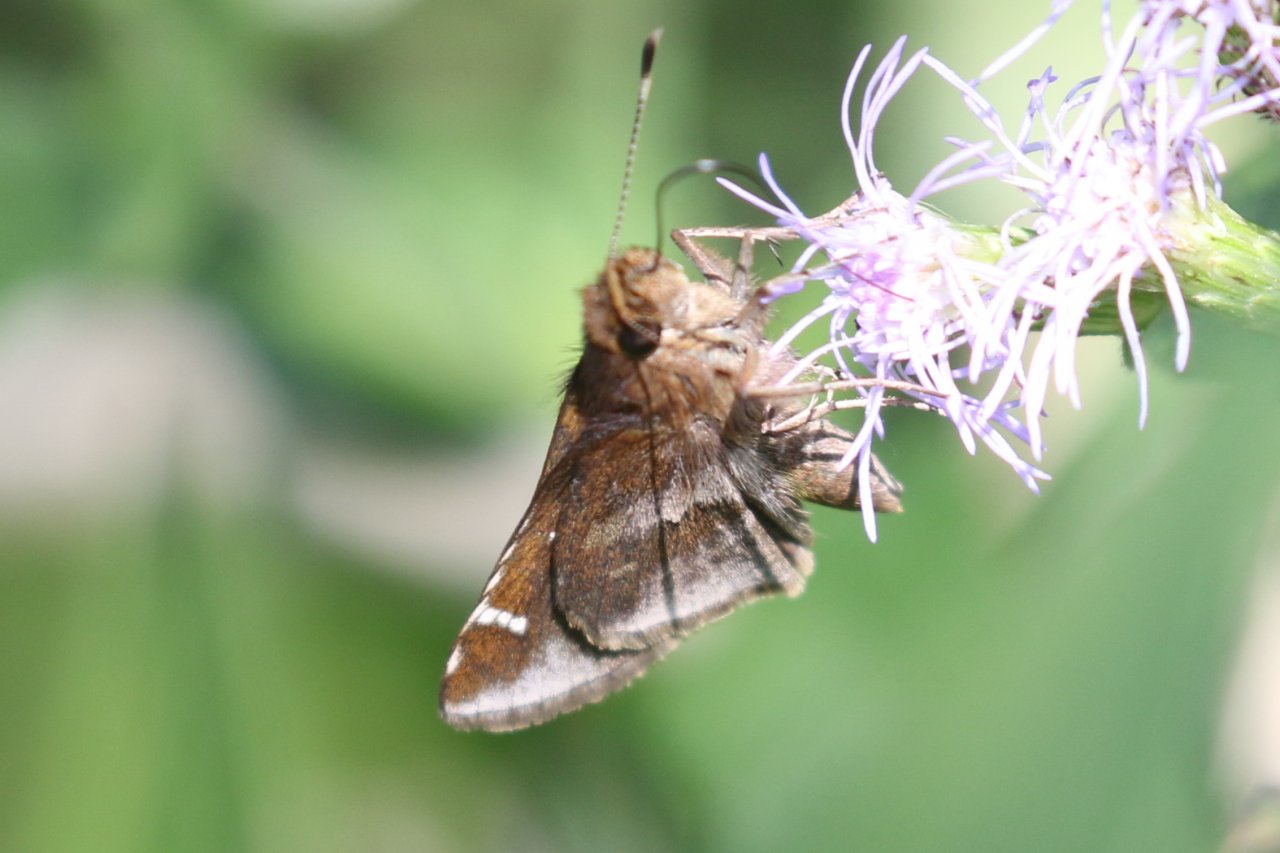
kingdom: Animalia
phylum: Arthropoda
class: Insecta
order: Lepidoptera
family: Hesperiidae
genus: Lerema
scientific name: Lerema accius
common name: Clouded Skipper
